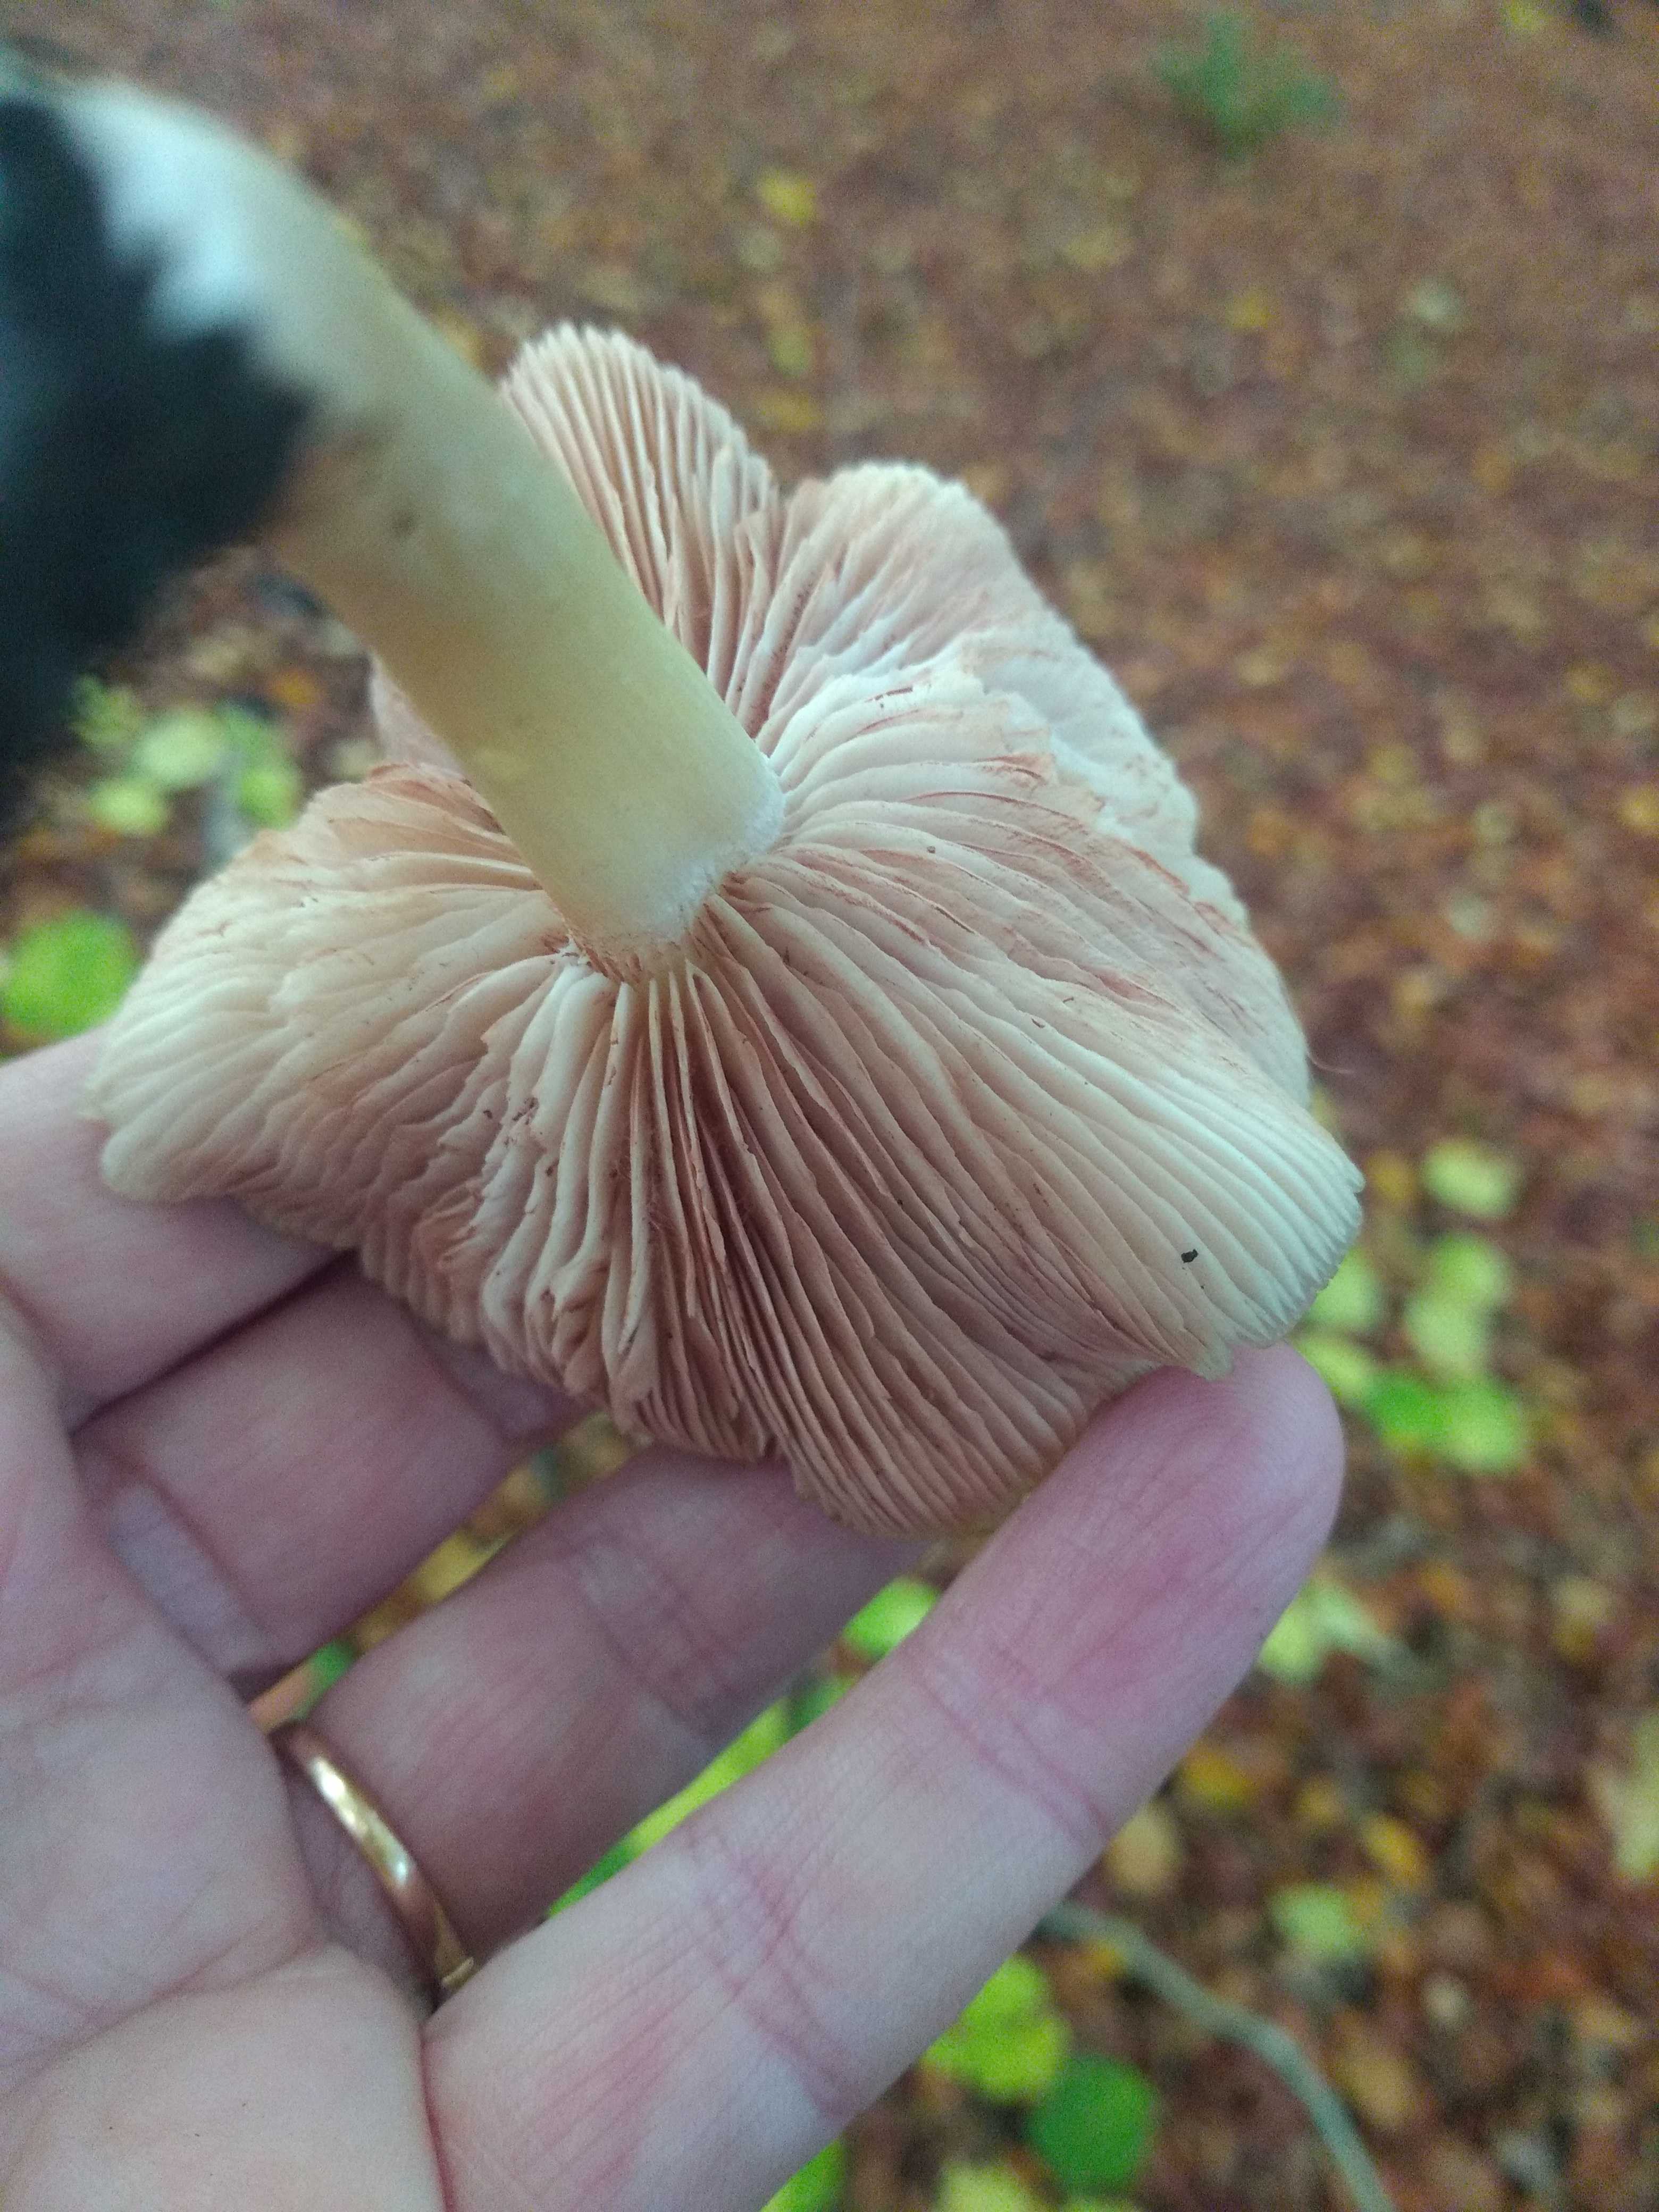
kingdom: Fungi
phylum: Basidiomycota
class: Agaricomycetes
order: Agaricales
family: Entolomataceae
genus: Entoloma
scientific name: Entoloma
